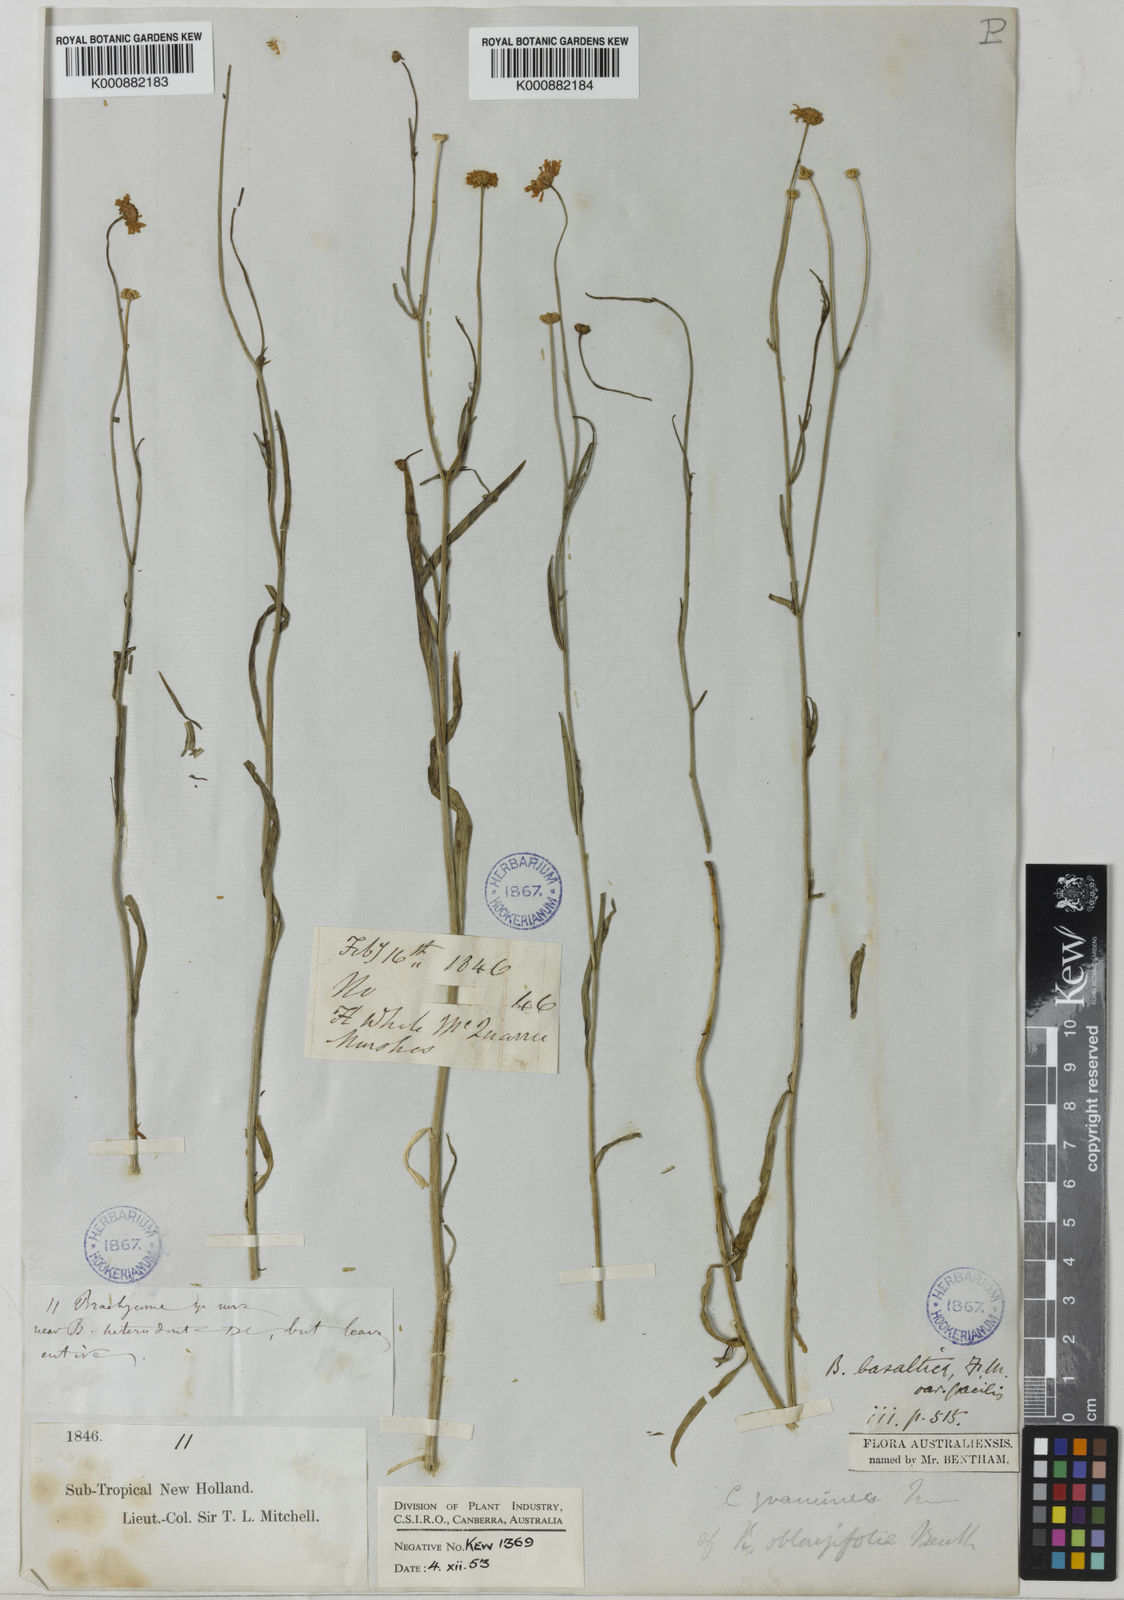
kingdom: Plantae
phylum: Tracheophyta
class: Magnoliopsida
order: Asterales
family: Asteraceae
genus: Brachyscome
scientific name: Brachyscome basaltica
